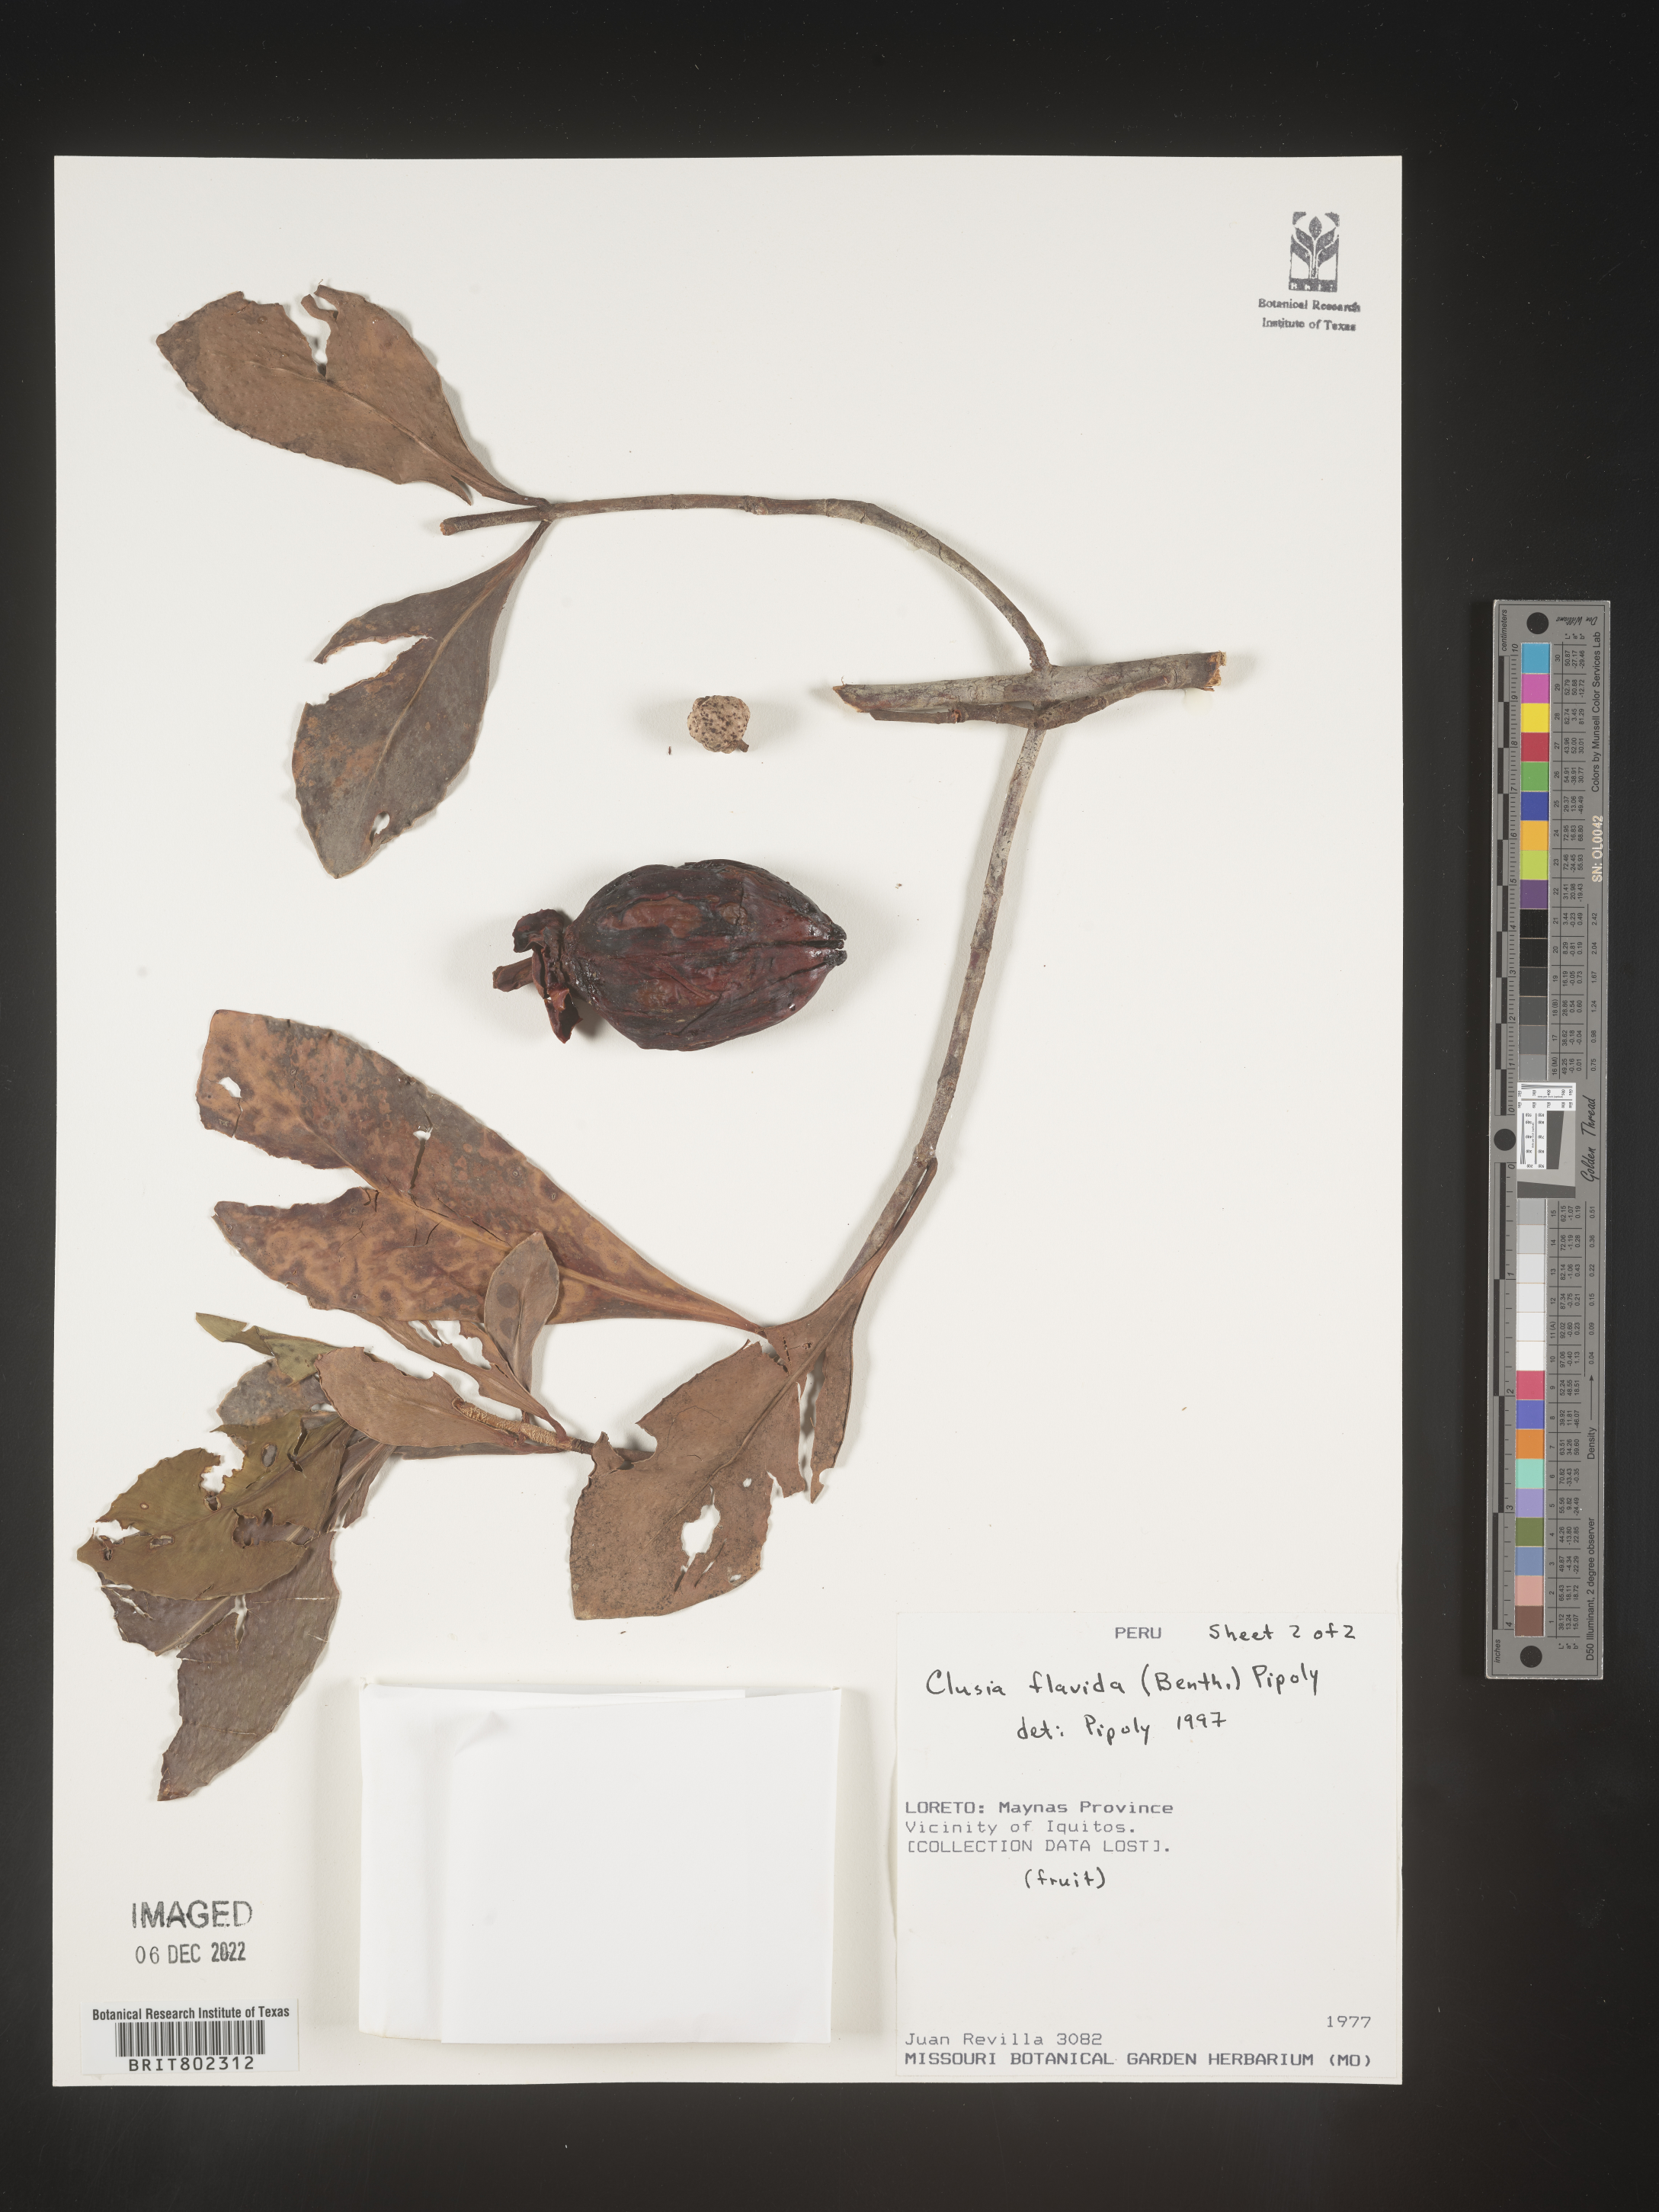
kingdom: Plantae
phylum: Tracheophyta
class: Magnoliopsida
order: Malpighiales
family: Clusiaceae
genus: Clusia
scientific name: Clusia flavida
